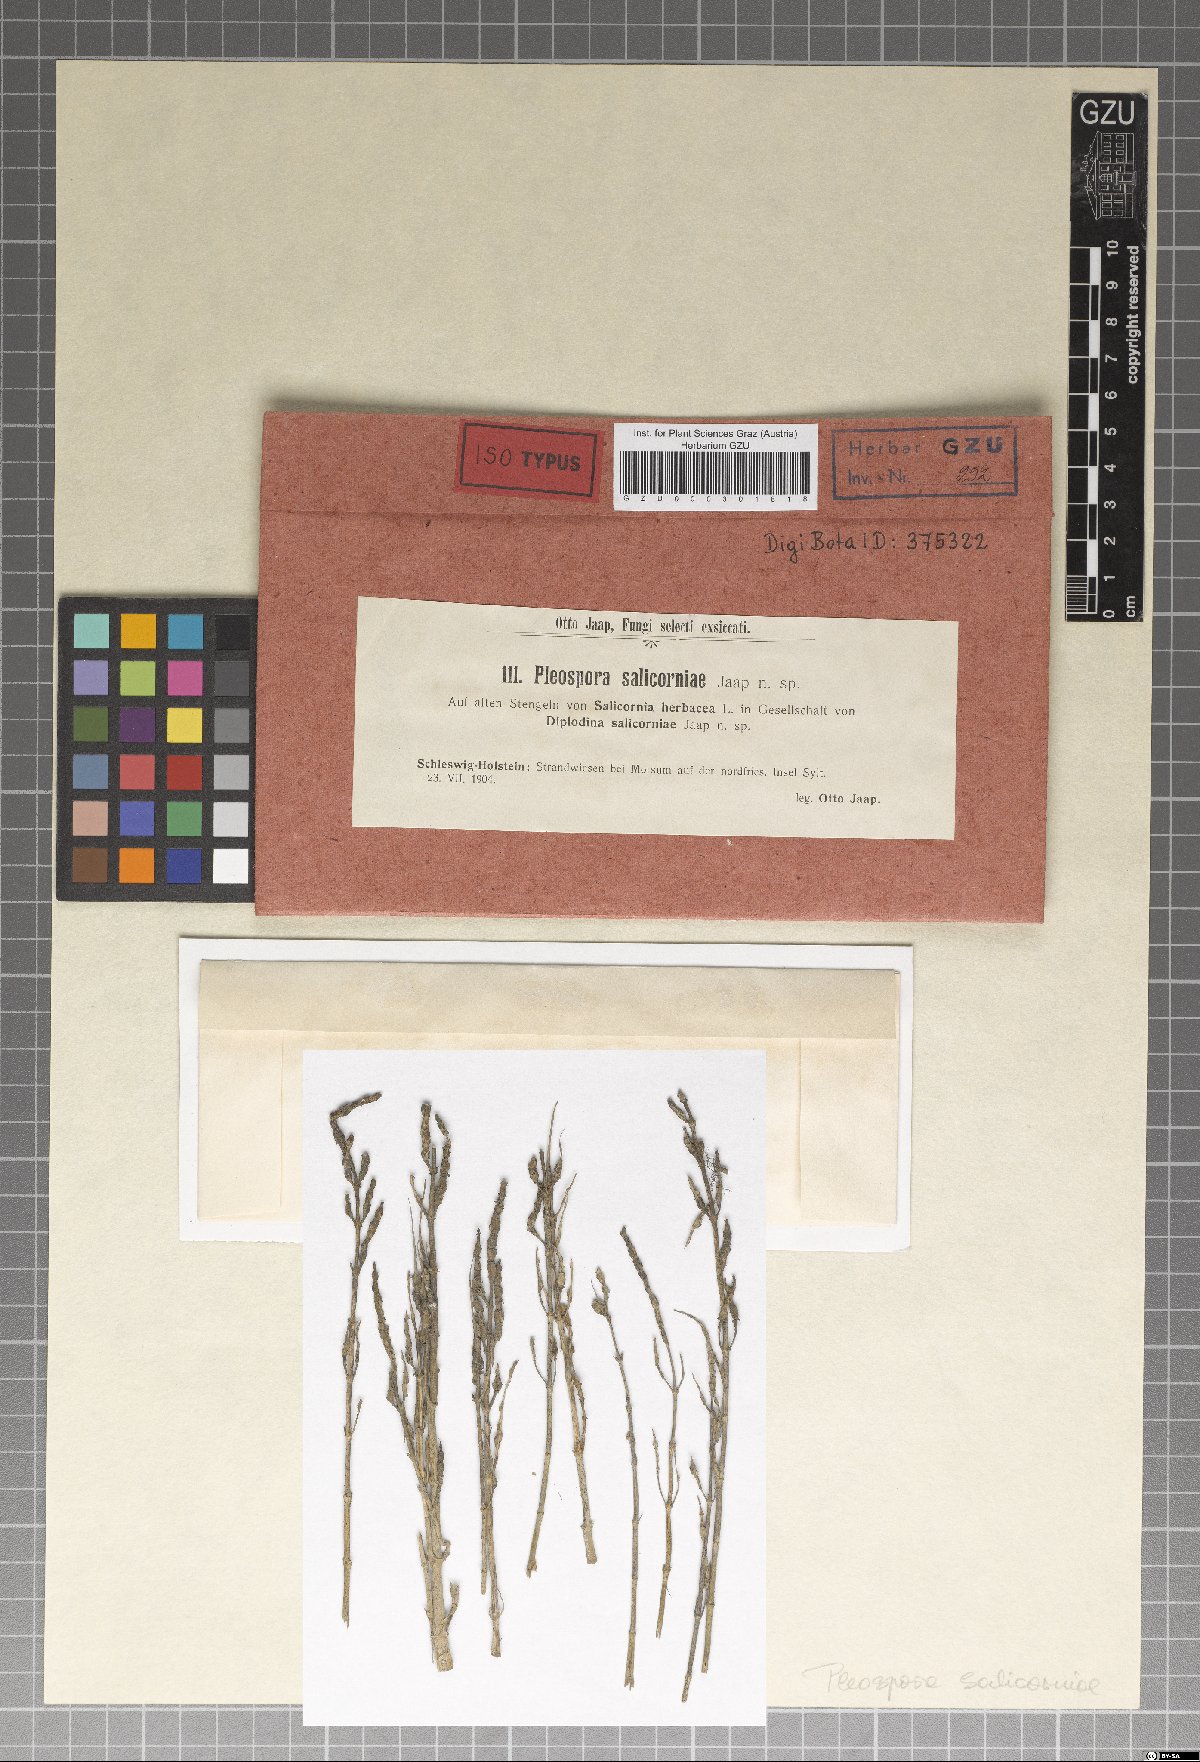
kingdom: Fungi
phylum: Ascomycota
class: Dothideomycetes
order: Pleosporales
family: Pleosporaceae
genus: Decorospora
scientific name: Decorospora gaudefroyi
